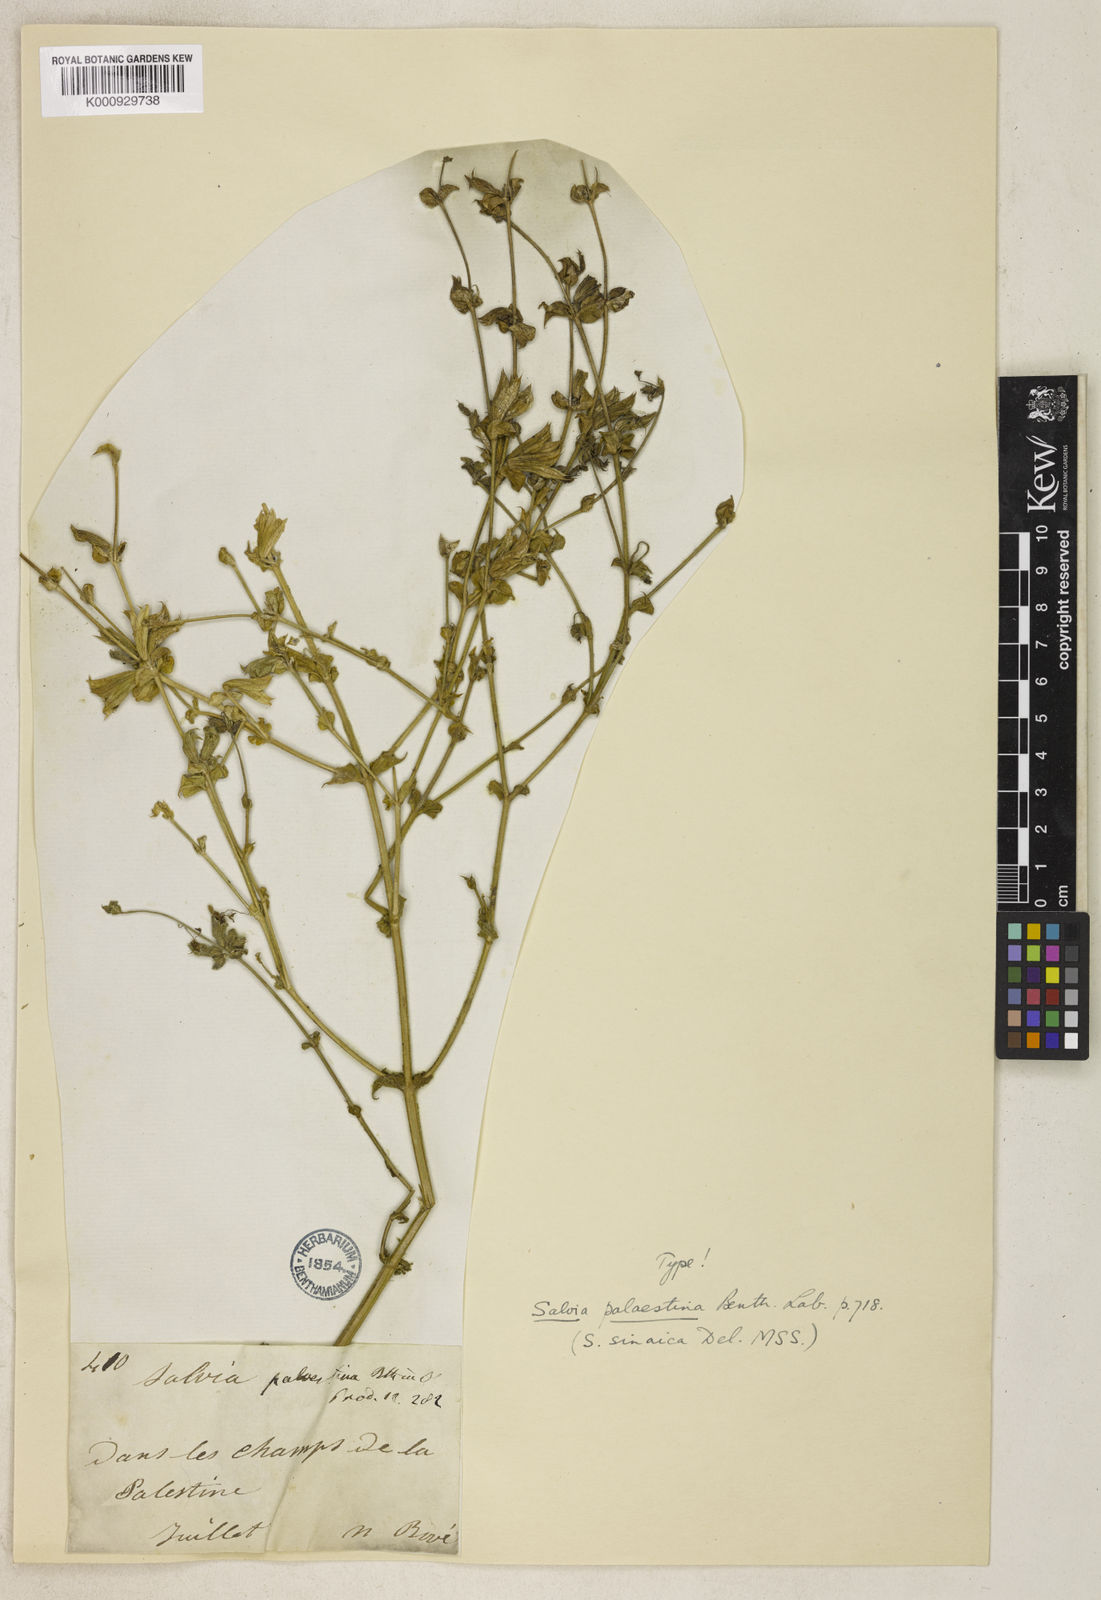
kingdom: Plantae
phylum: Tracheophyta
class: Magnoliopsida
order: Lamiales
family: Lamiaceae
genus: Salvia
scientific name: Salvia palaestina
